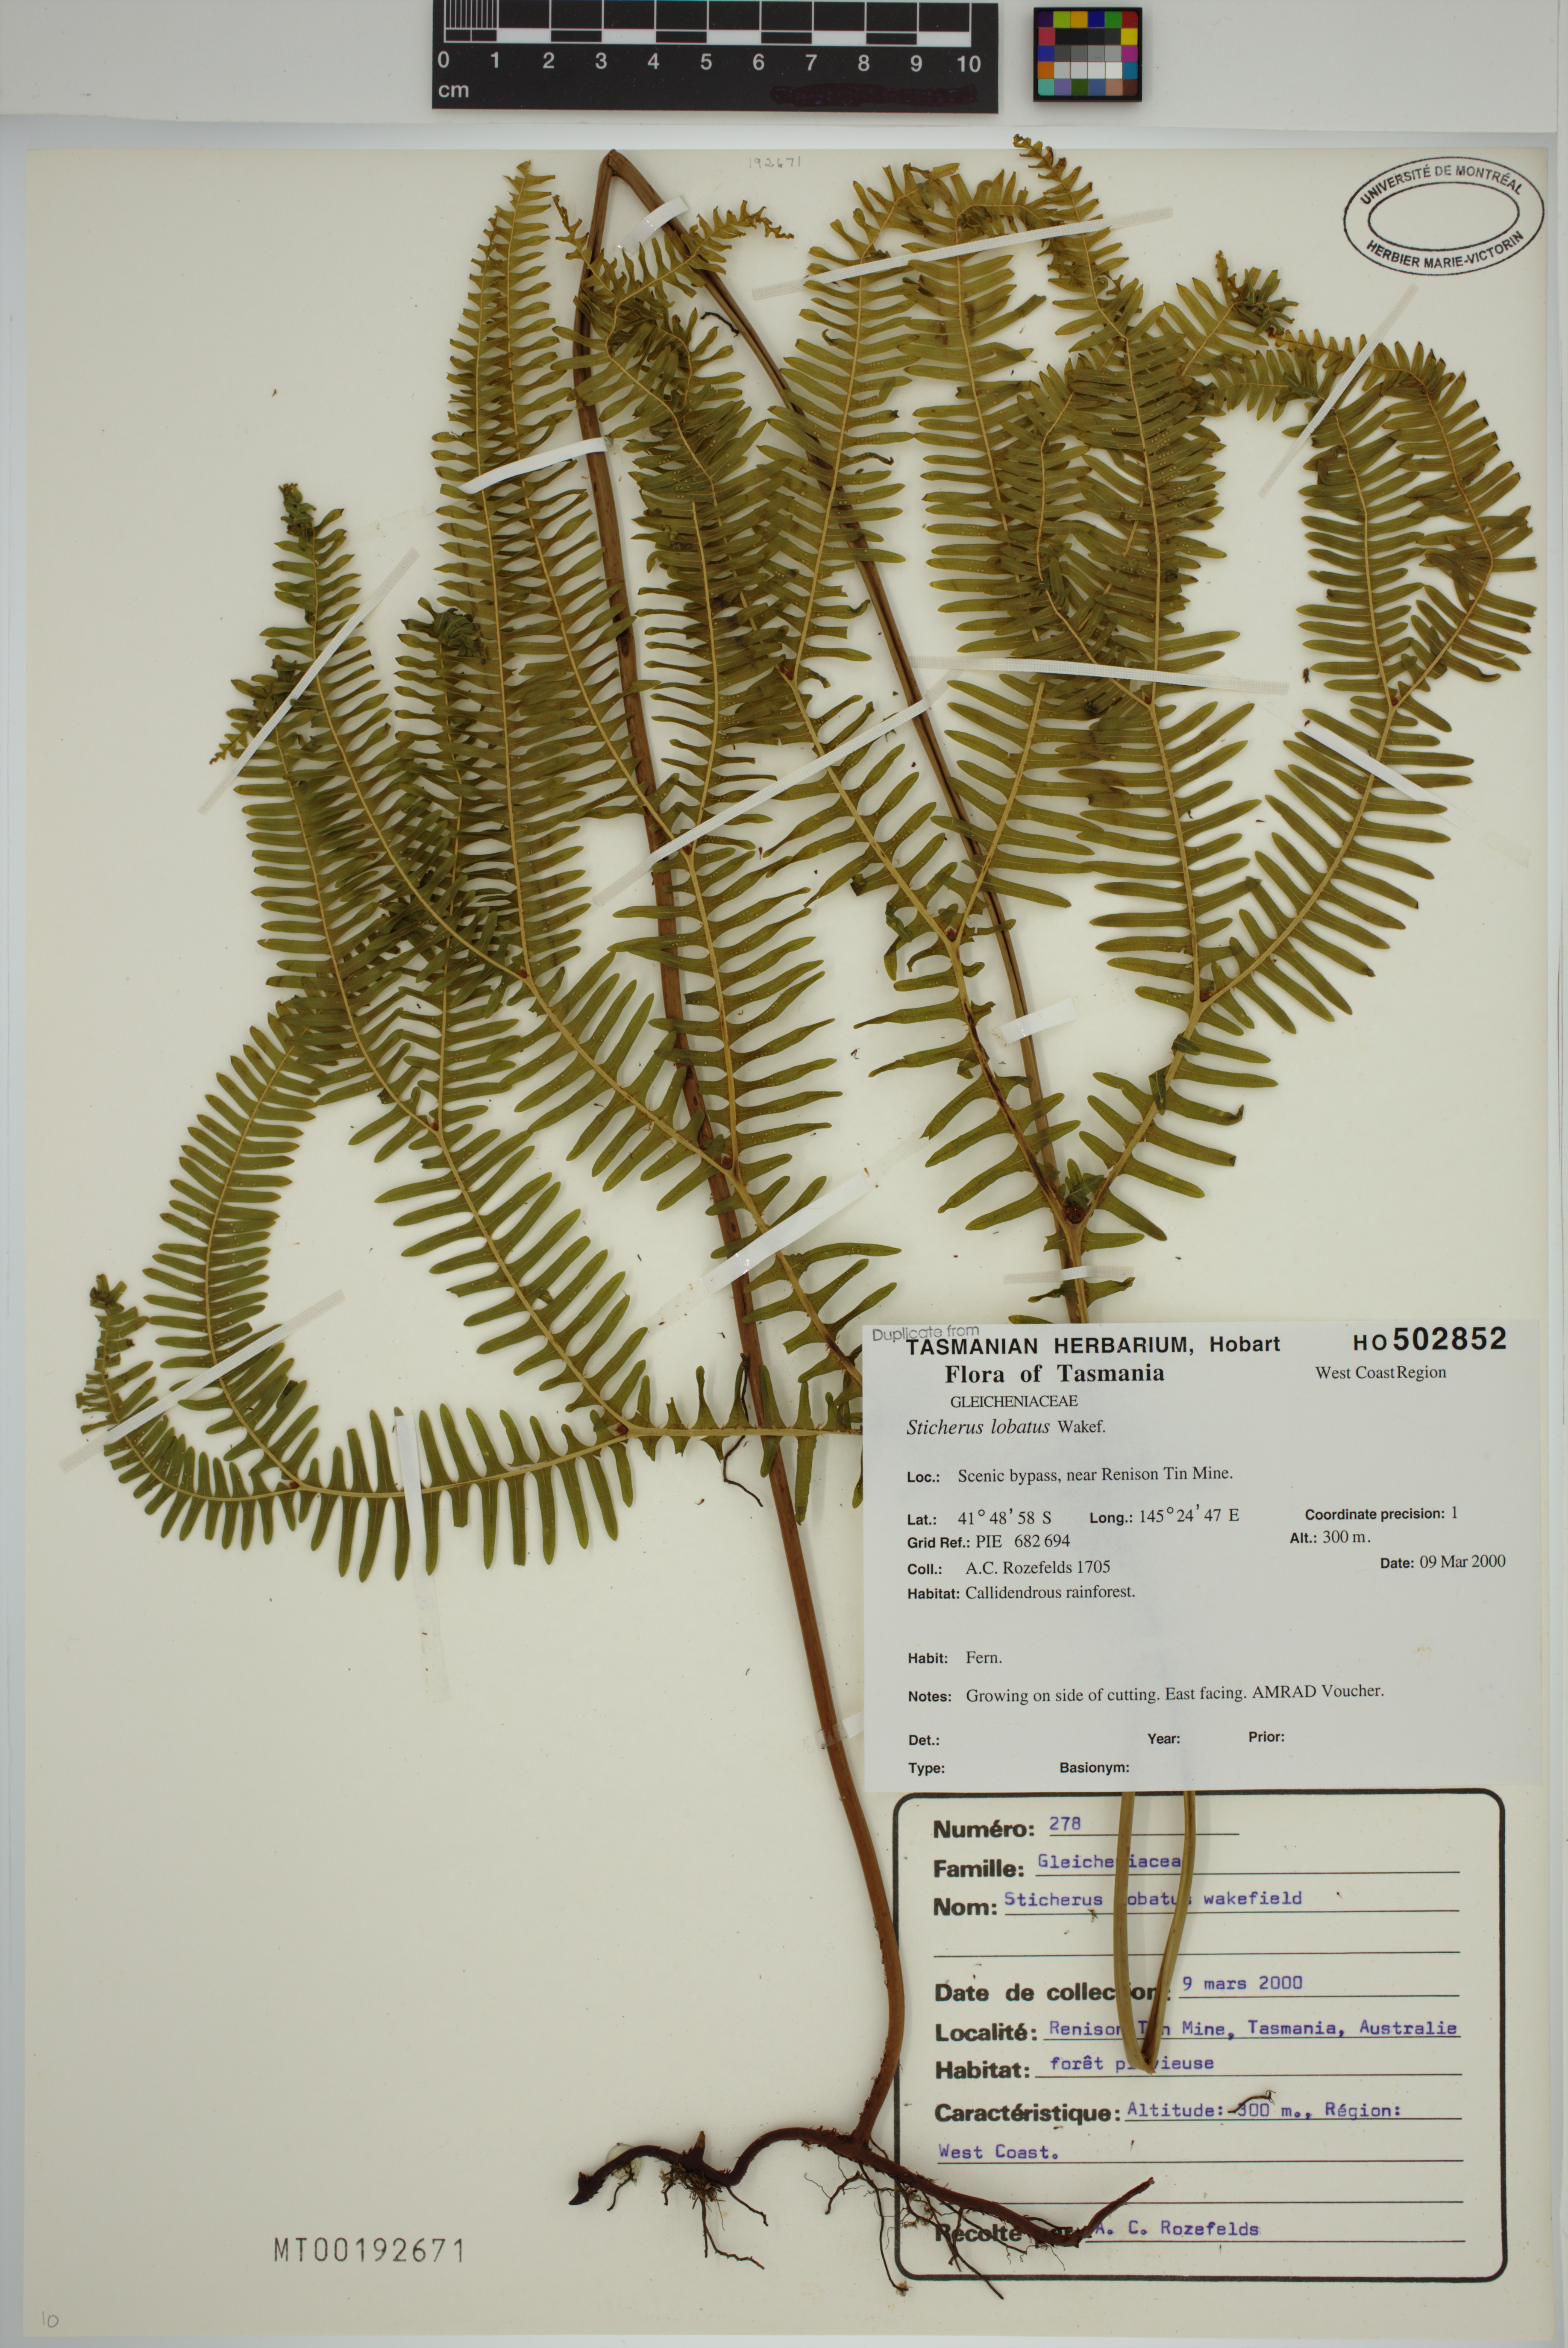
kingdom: Plantae
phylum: Tracheophyta
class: Polypodiopsida
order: Gleicheniales
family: Gleicheniaceae
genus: Sticherus
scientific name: Sticherus lobatus
